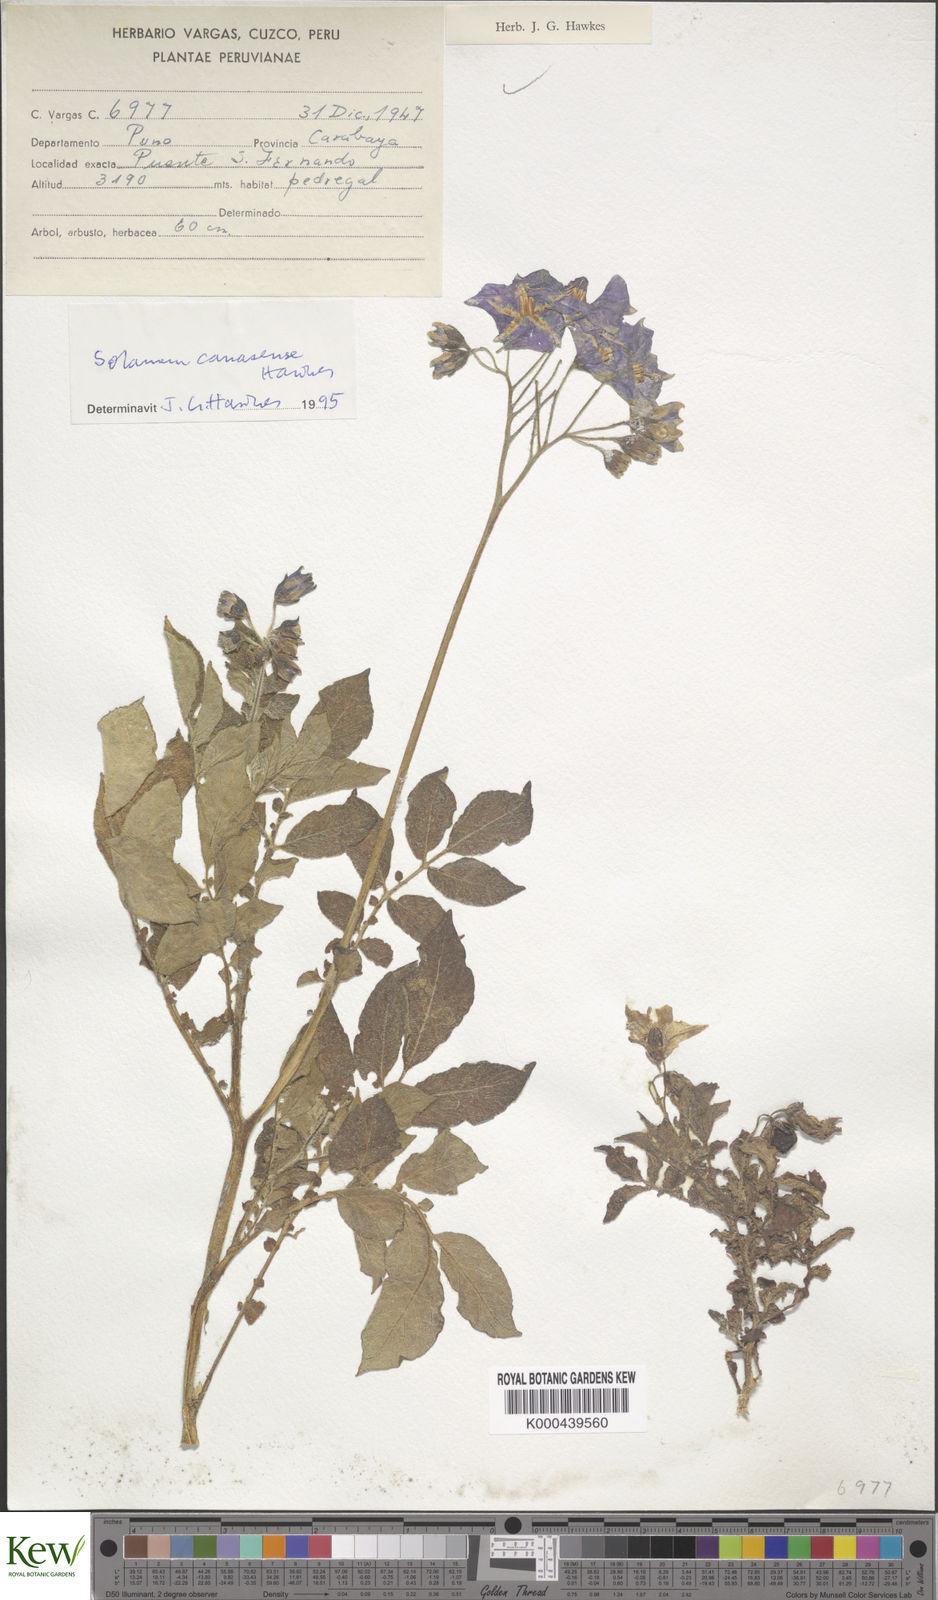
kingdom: Plantae
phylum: Tracheophyta
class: Magnoliopsida
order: Solanales
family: Solanaceae
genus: Solanum
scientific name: Solanum candolleanum
